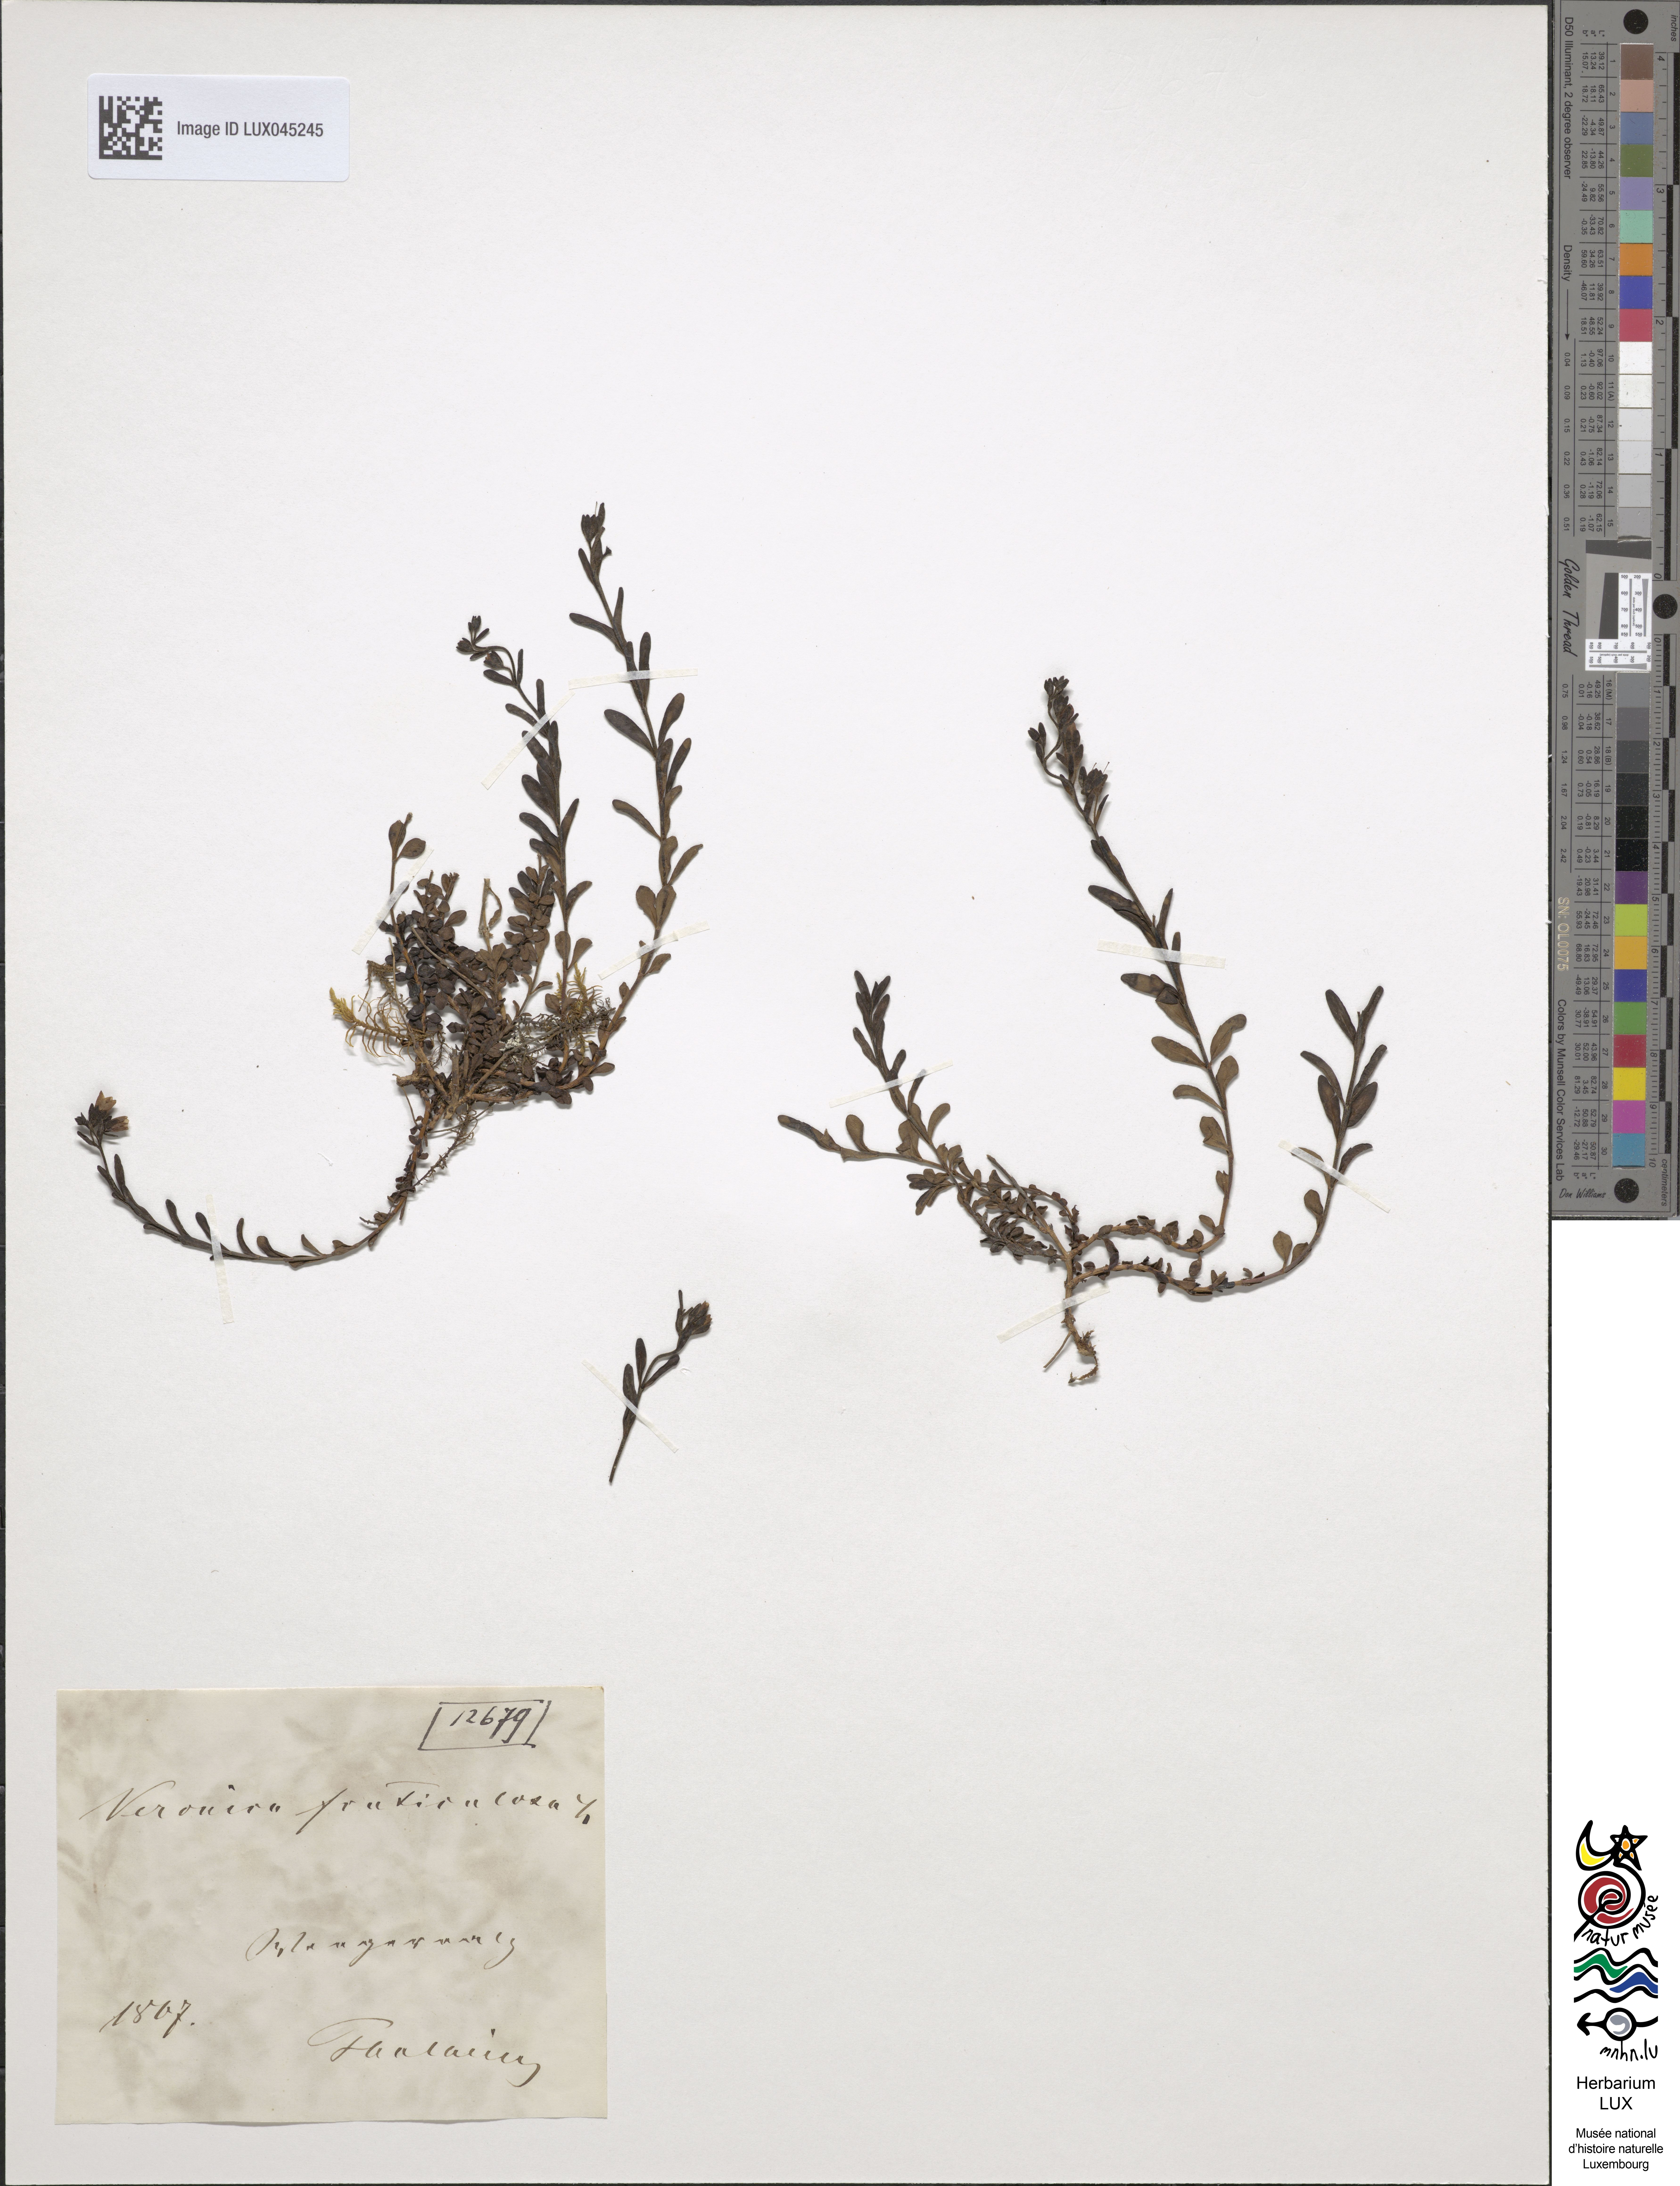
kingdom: Plantae
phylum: Tracheophyta
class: Magnoliopsida
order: Lamiales
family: Plantaginaceae
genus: Veronica
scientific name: Veronica fruticulosa
